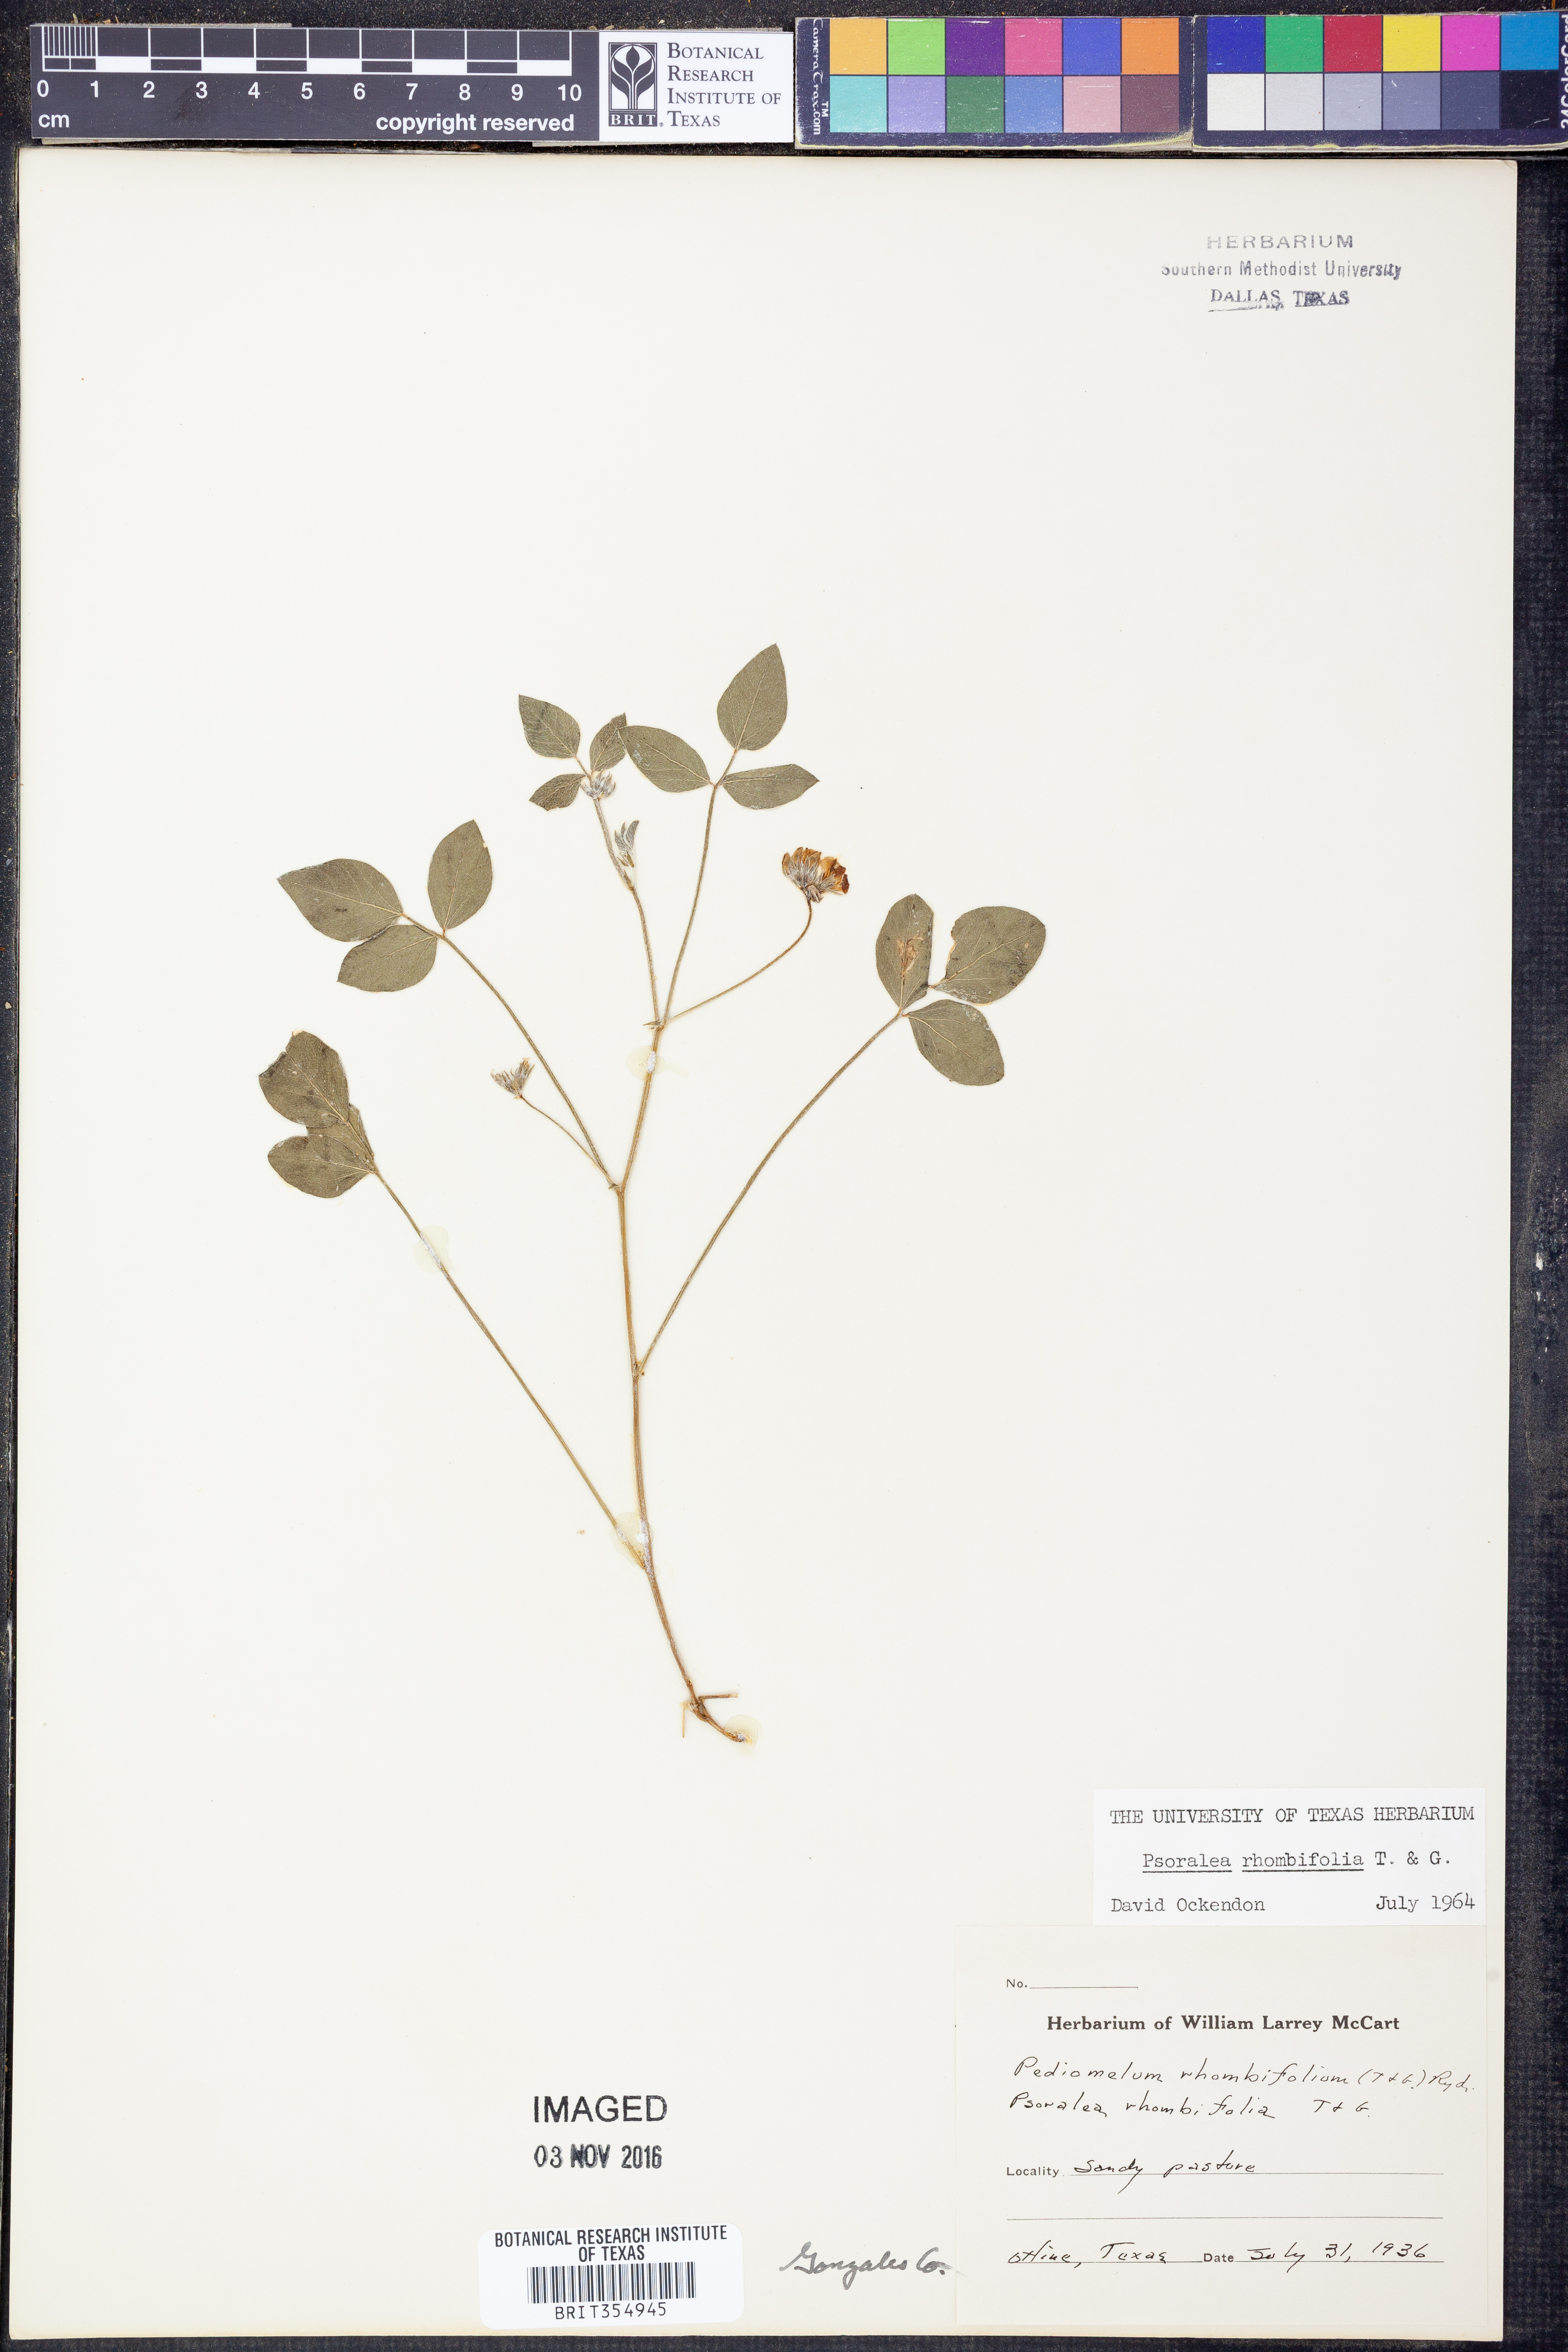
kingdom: Plantae
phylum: Tracheophyta
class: Magnoliopsida
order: Fabales
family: Fabaceae
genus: Pediomelum
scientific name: Pediomelum rhombifolium
